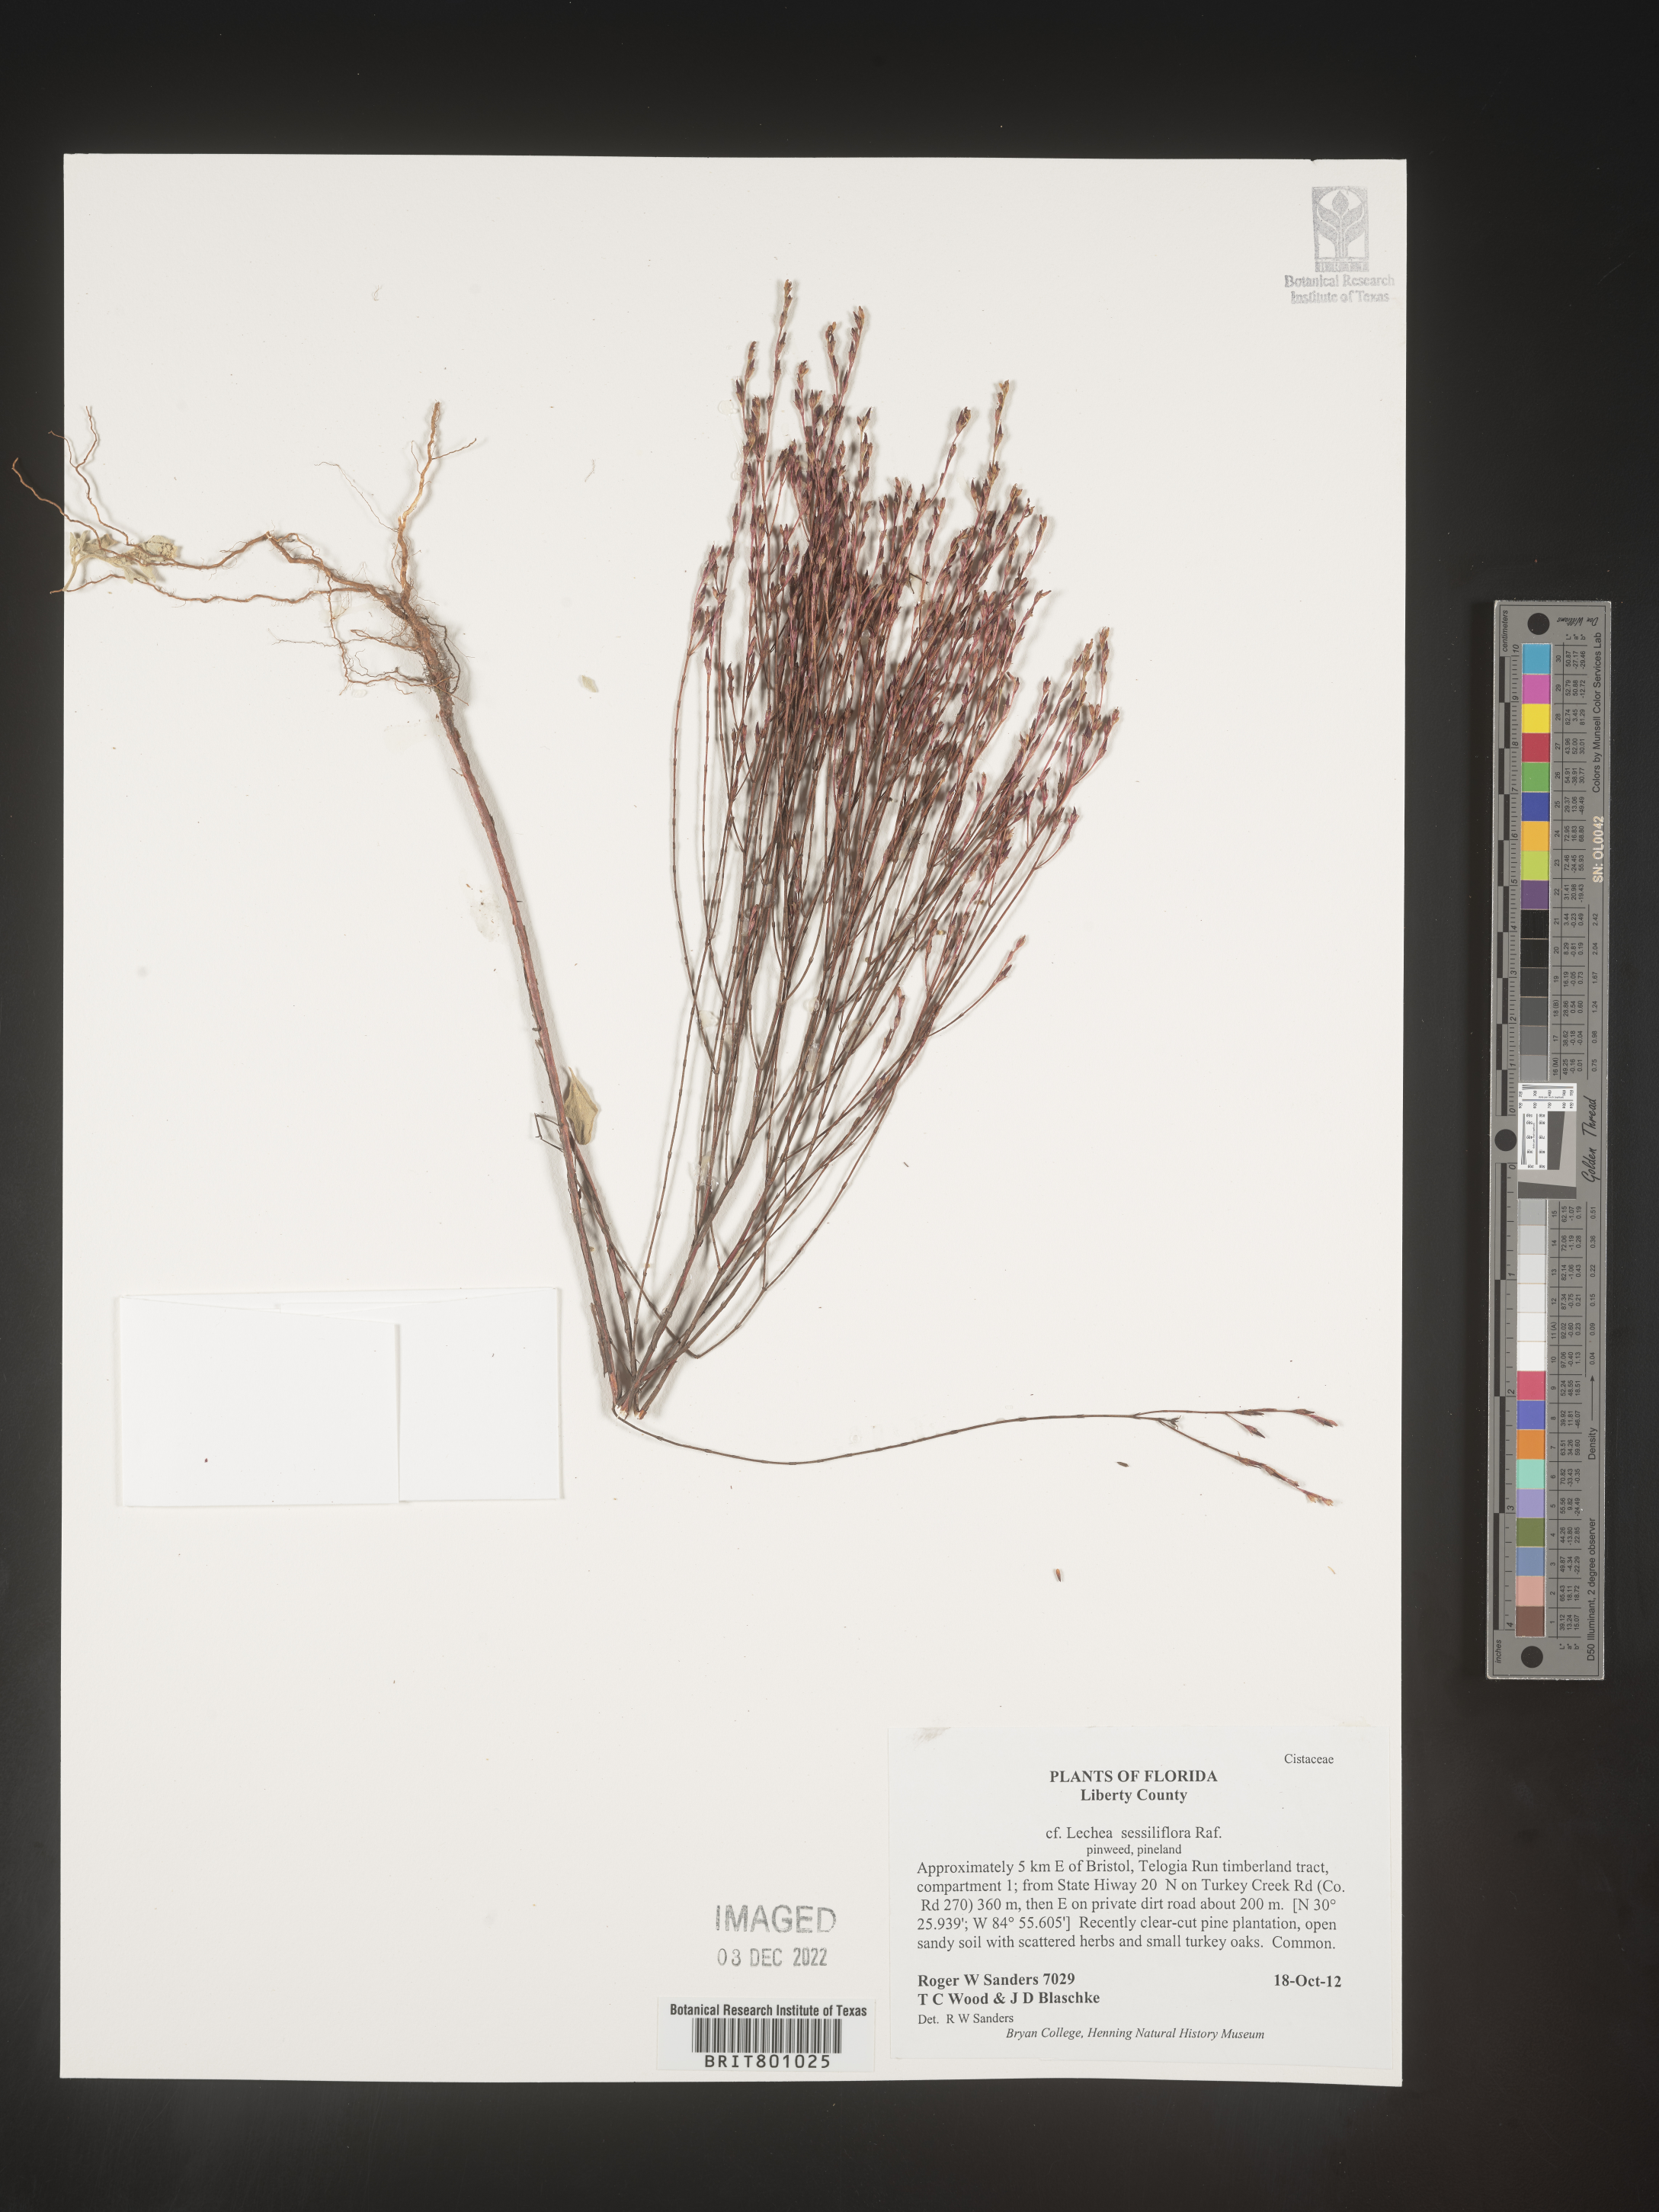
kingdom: Plantae
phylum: Tracheophyta
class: Magnoliopsida
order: Malvales
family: Cistaceae
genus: Lechea
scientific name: Lechea
